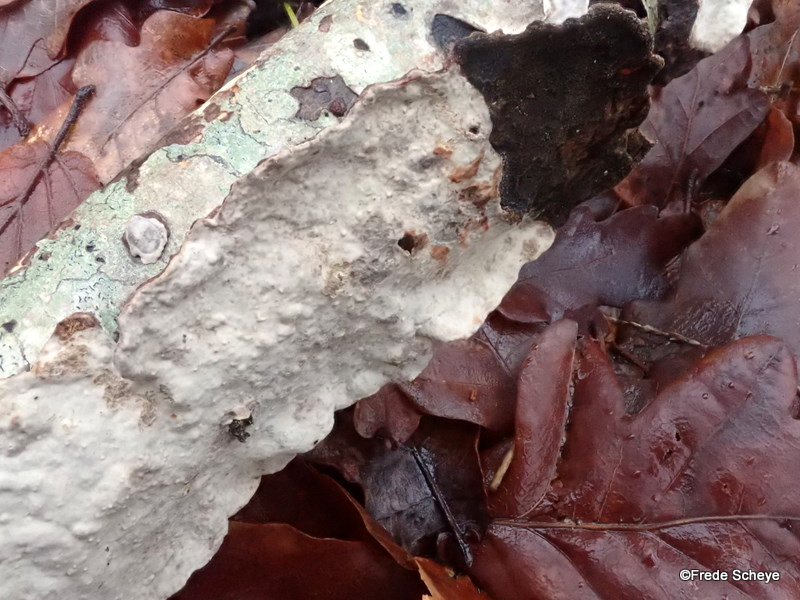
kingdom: Fungi
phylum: Basidiomycota
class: Agaricomycetes
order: Russulales
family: Stereaceae
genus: Stereum
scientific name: Stereum rugosum
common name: rynket lædersvamp
